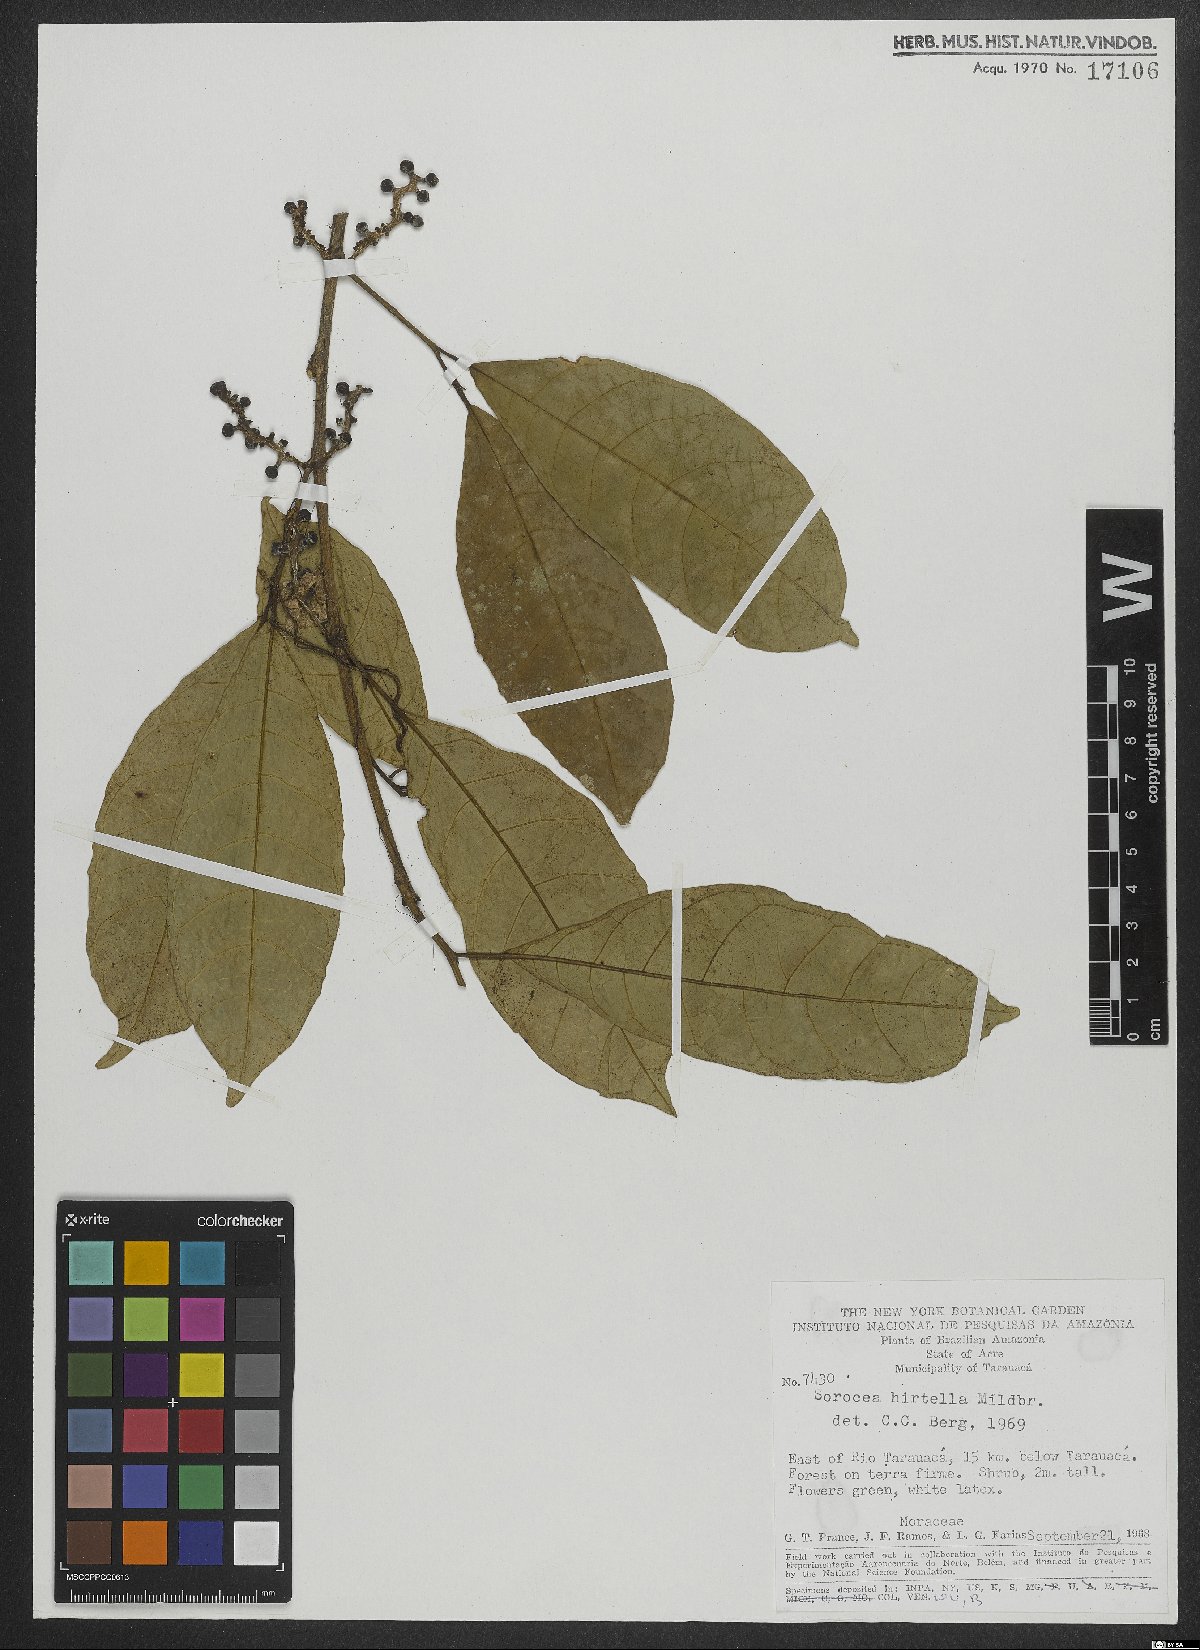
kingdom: Plantae
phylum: Tracheophyta
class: Magnoliopsida
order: Rosales
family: Moraceae
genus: Sorocea
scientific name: Sorocea pubivena
